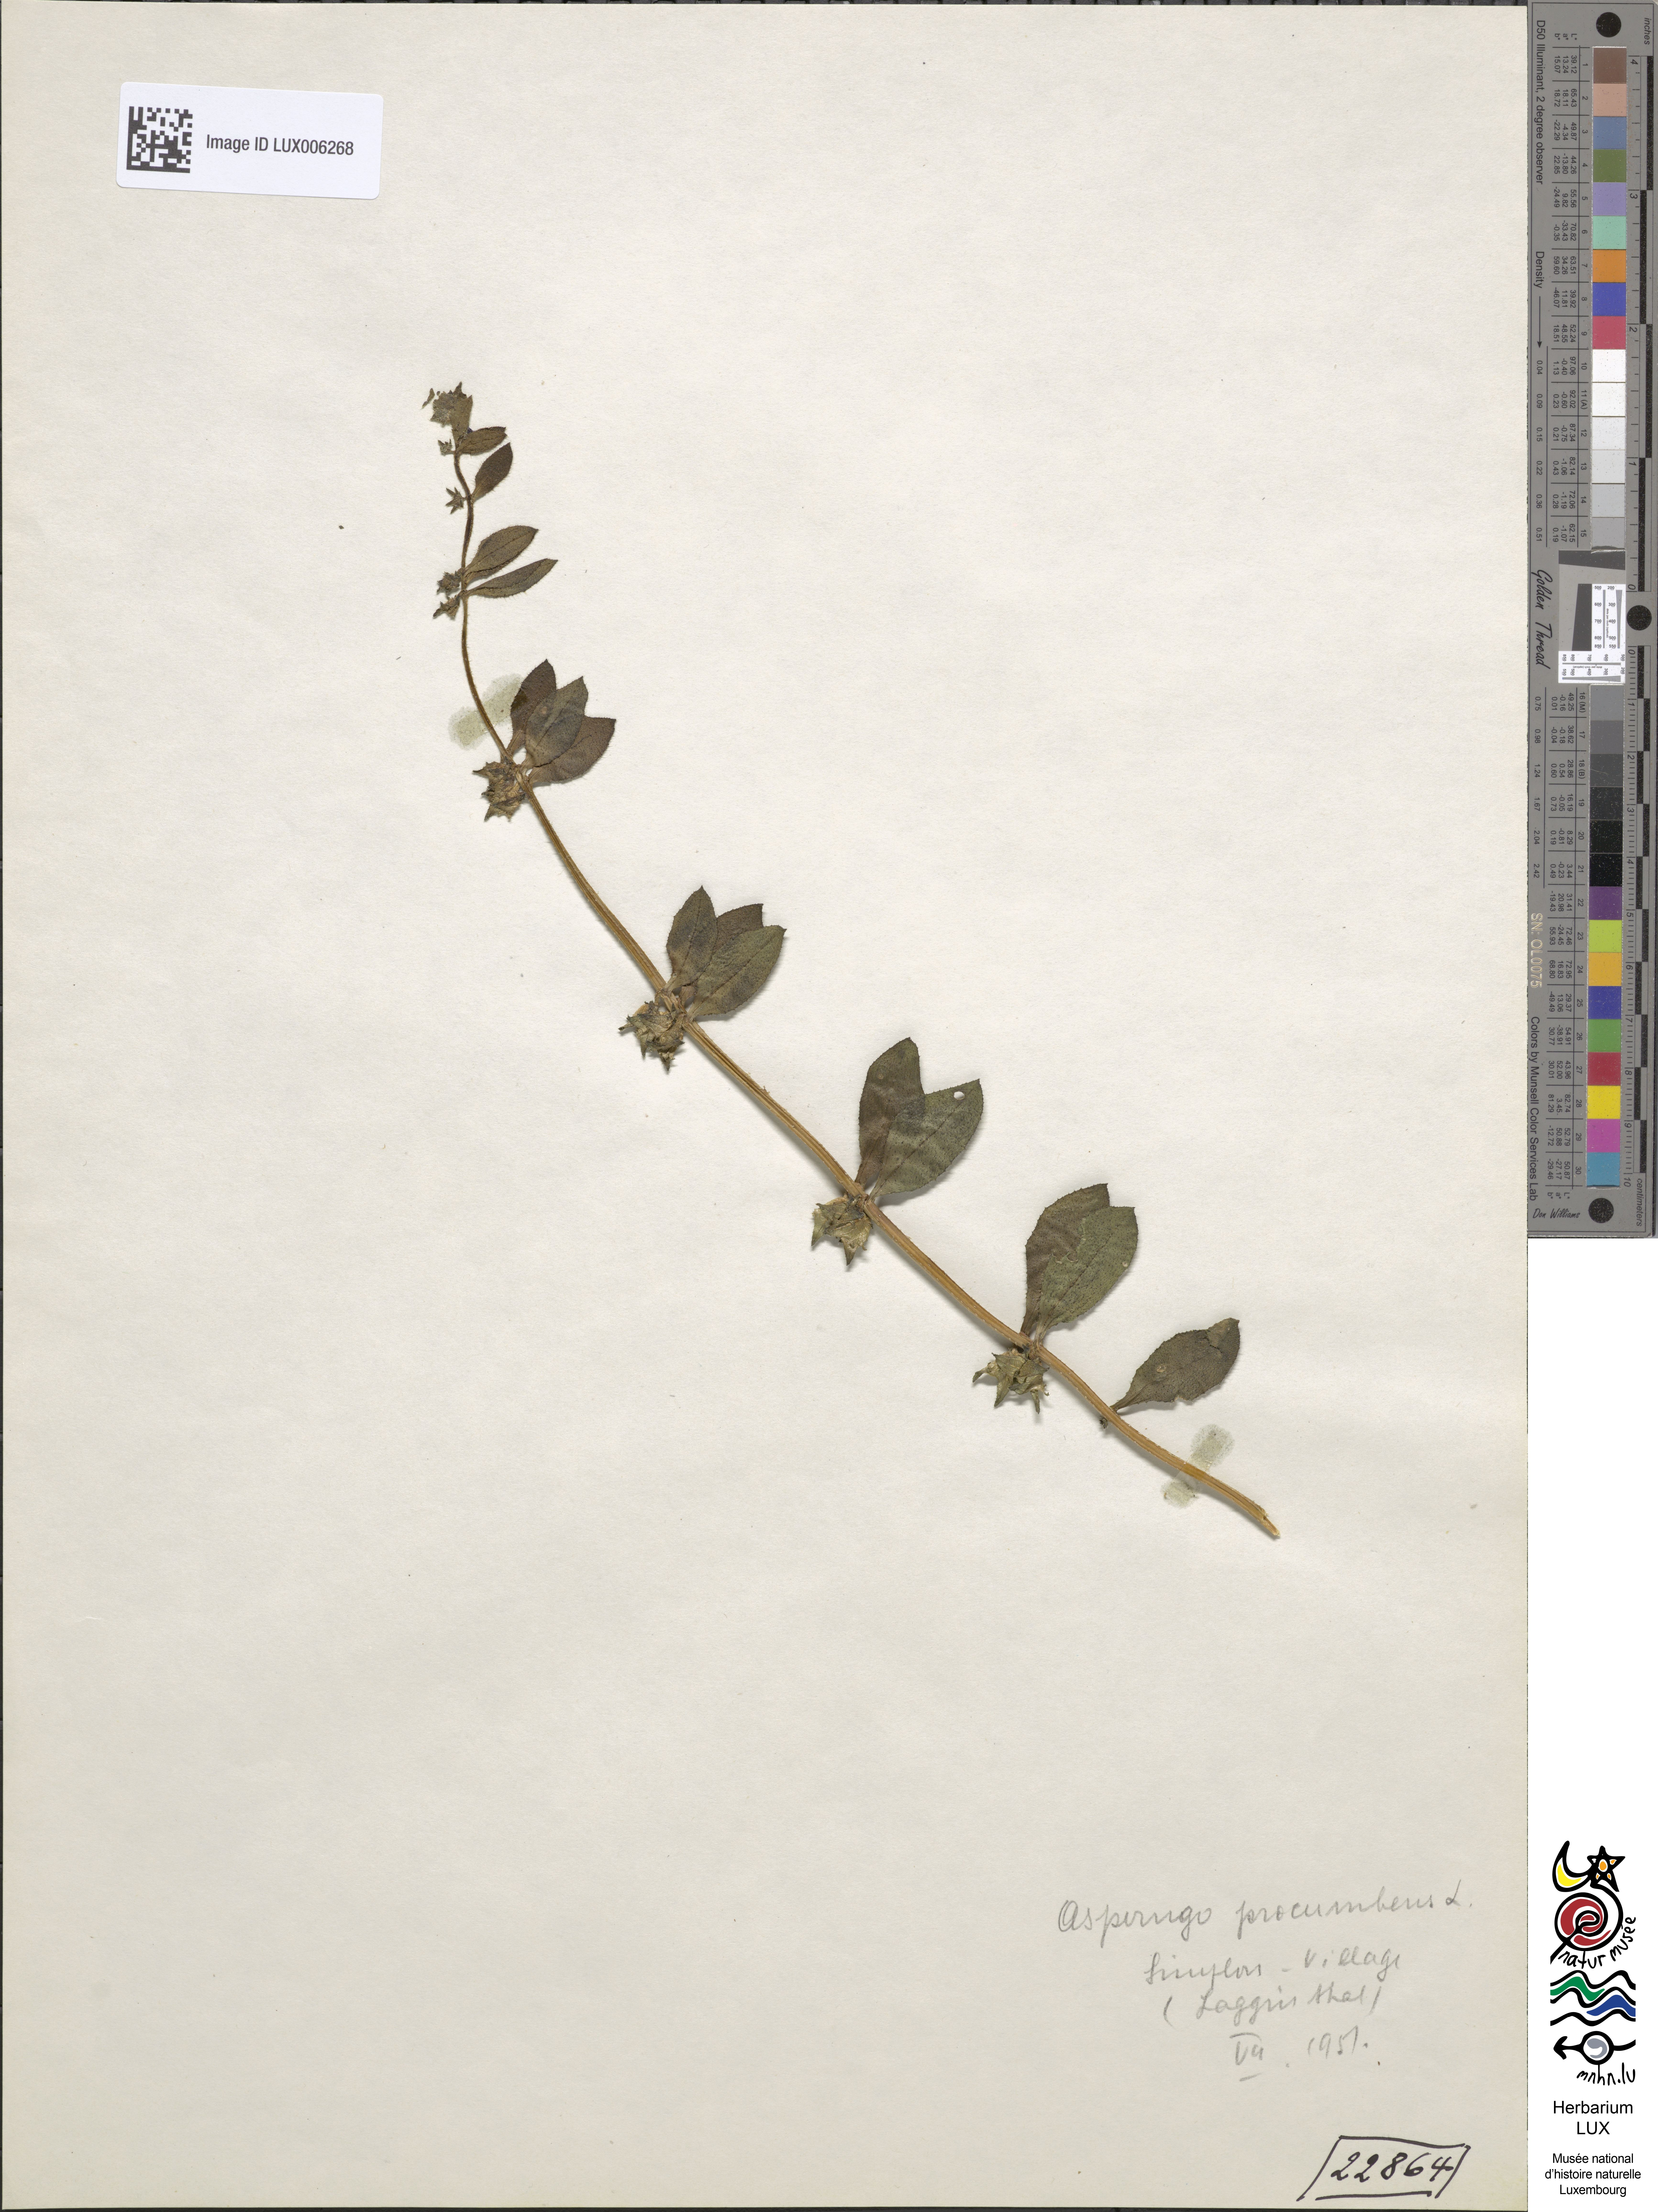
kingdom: Plantae
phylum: Tracheophyta
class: Magnoliopsida
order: Boraginales
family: Boraginaceae
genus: Asperugo
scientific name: Asperugo procumbens
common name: Madwort
